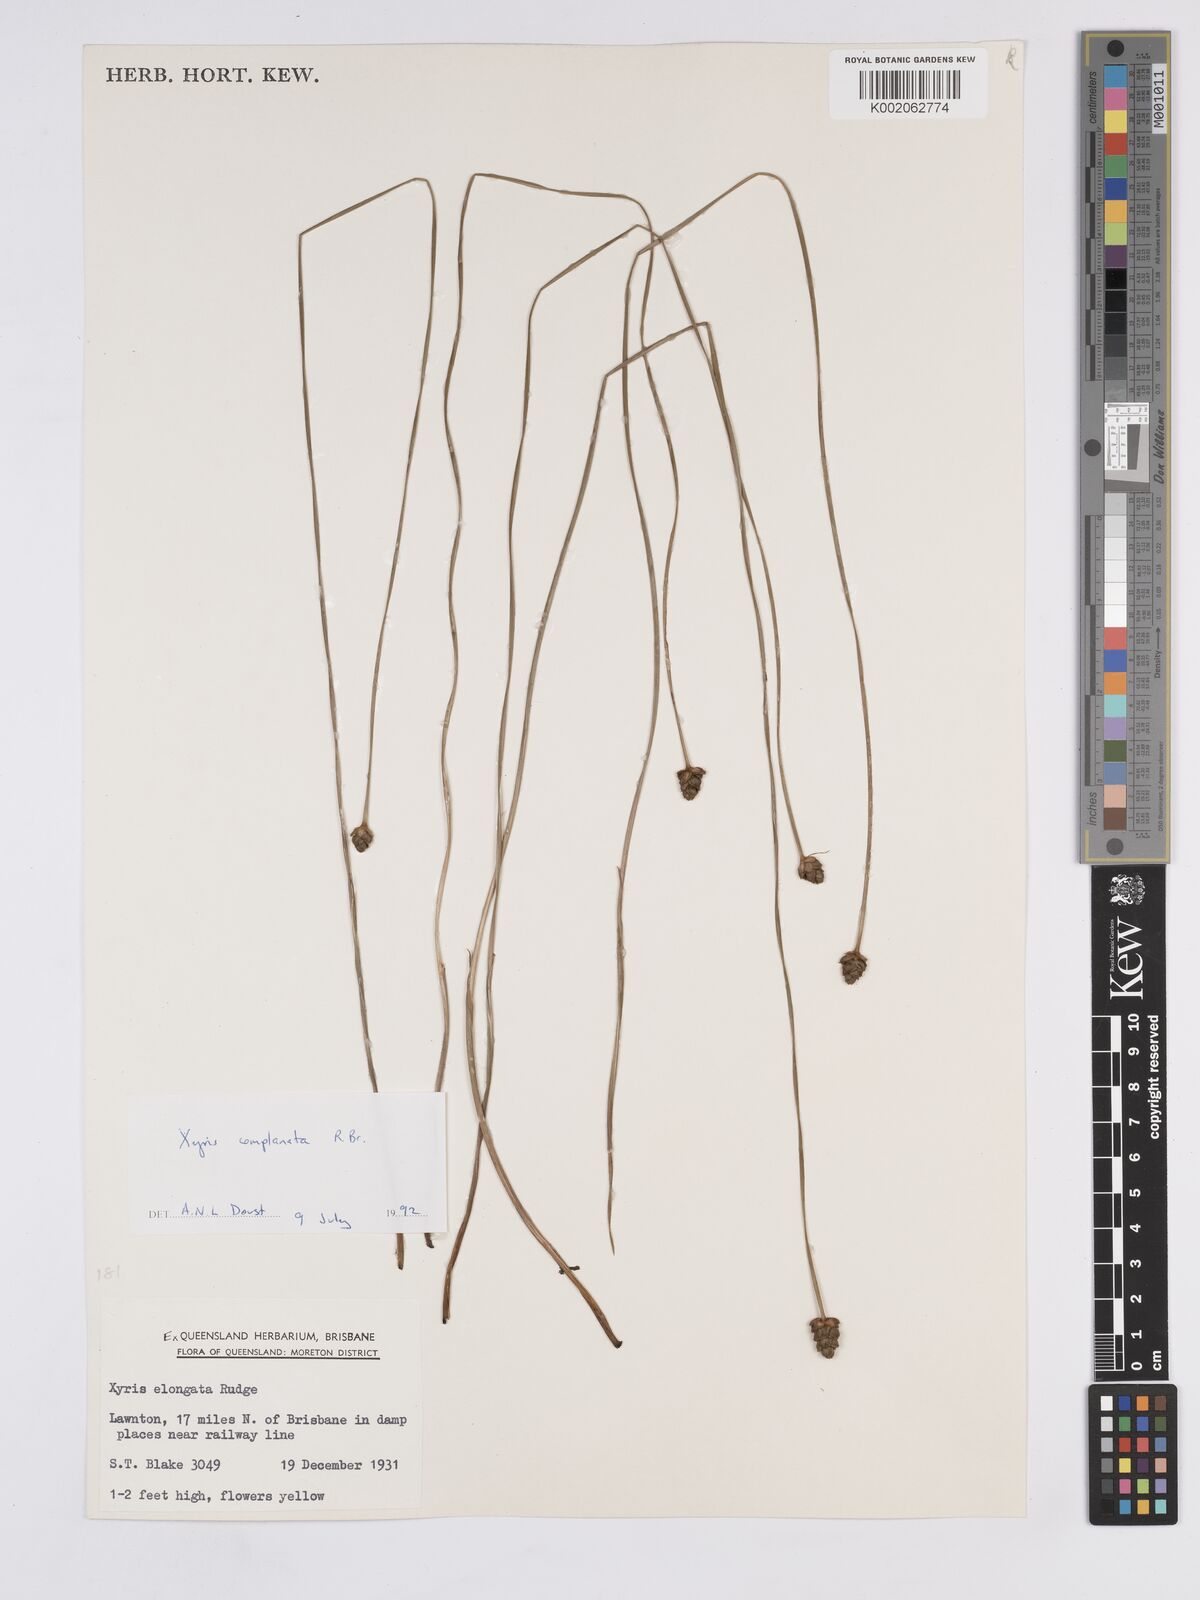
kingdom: Plantae
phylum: Tracheophyta
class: Liliopsida
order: Poales
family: Xyridaceae
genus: Xyris
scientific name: Xyris complanata
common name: Hawai'i yelloweyed grass
